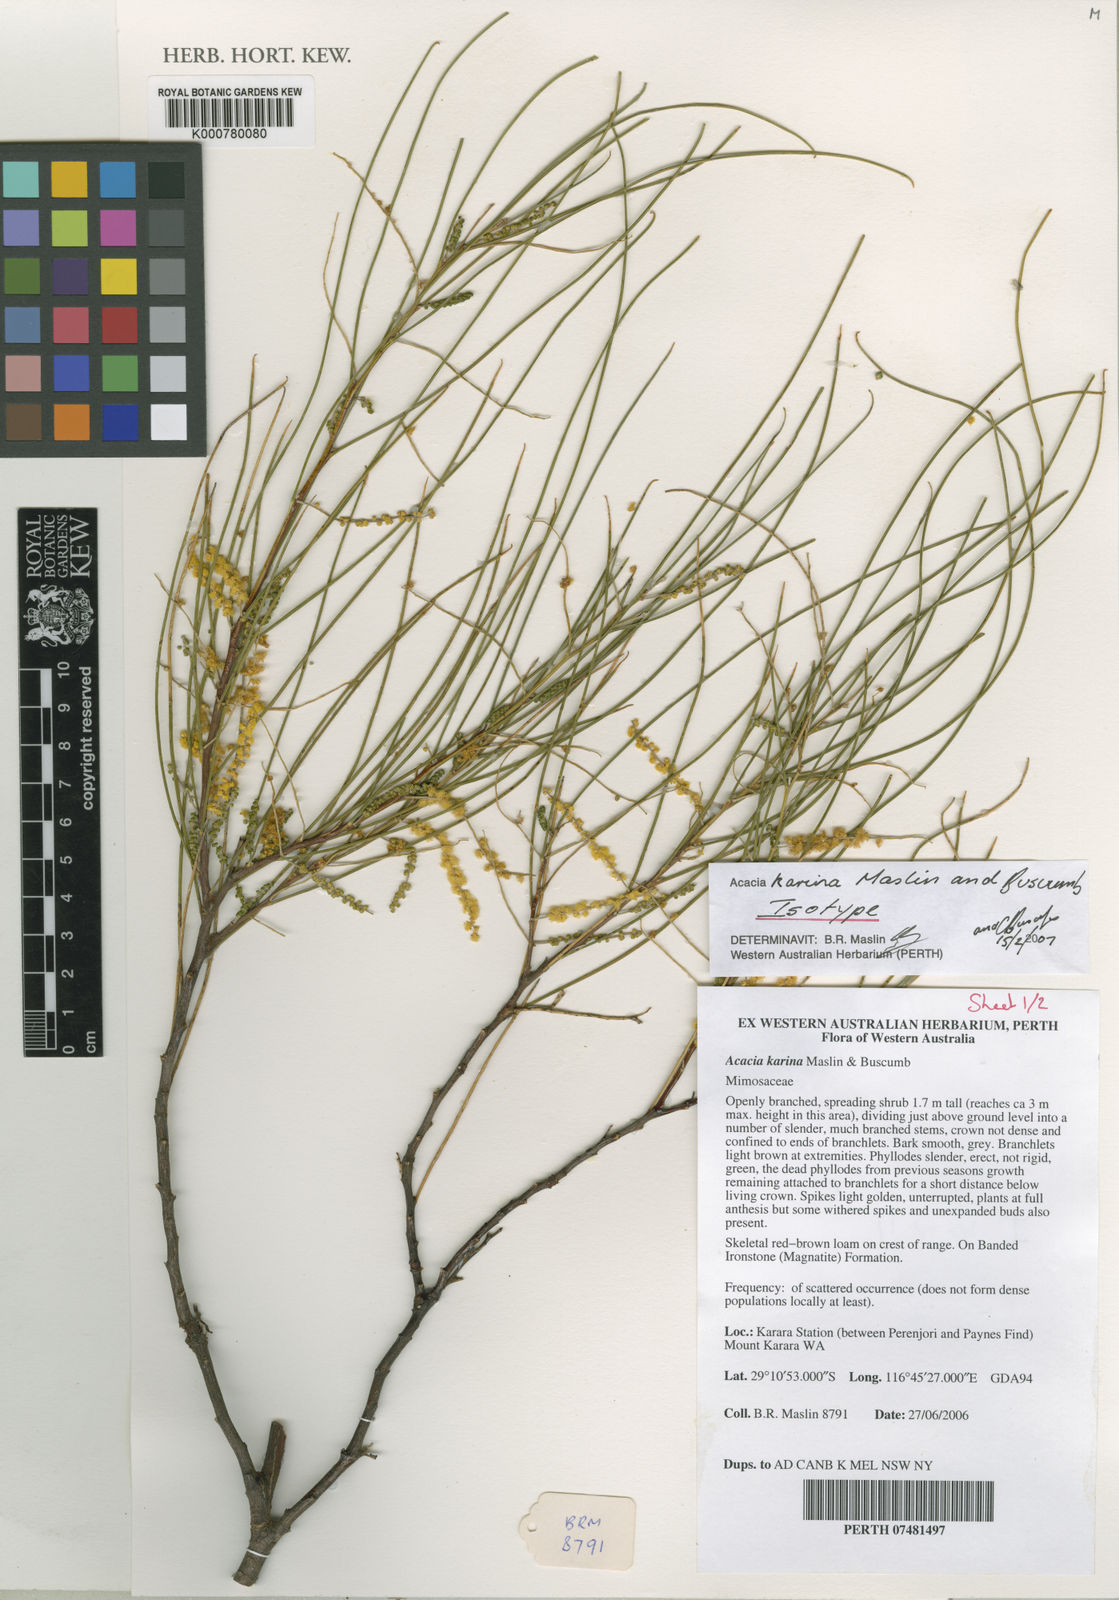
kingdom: Plantae
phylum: Tracheophyta
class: Magnoliopsida
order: Fabales
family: Fabaceae
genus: Acacia
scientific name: Acacia karina
